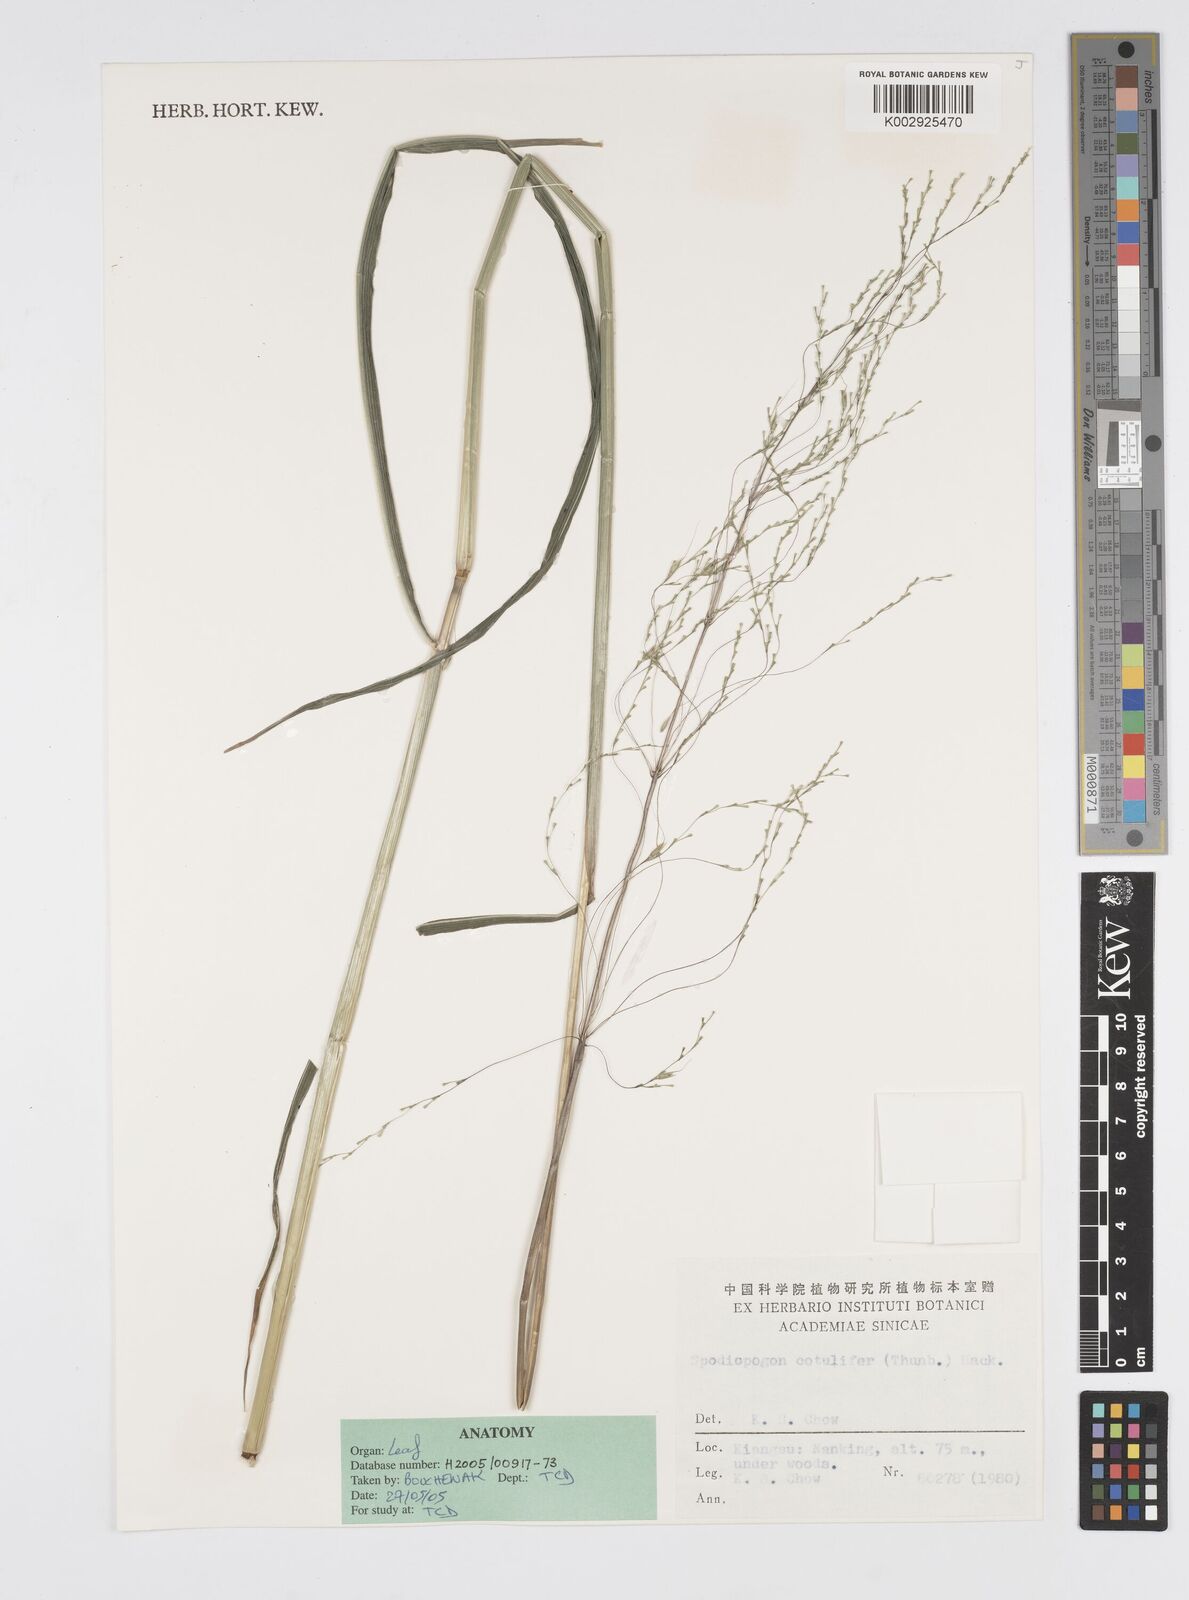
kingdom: Plantae
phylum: Tracheophyta
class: Liliopsida
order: Poales
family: Poaceae
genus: Spodiopogon
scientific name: Spodiopogon cotulifer
